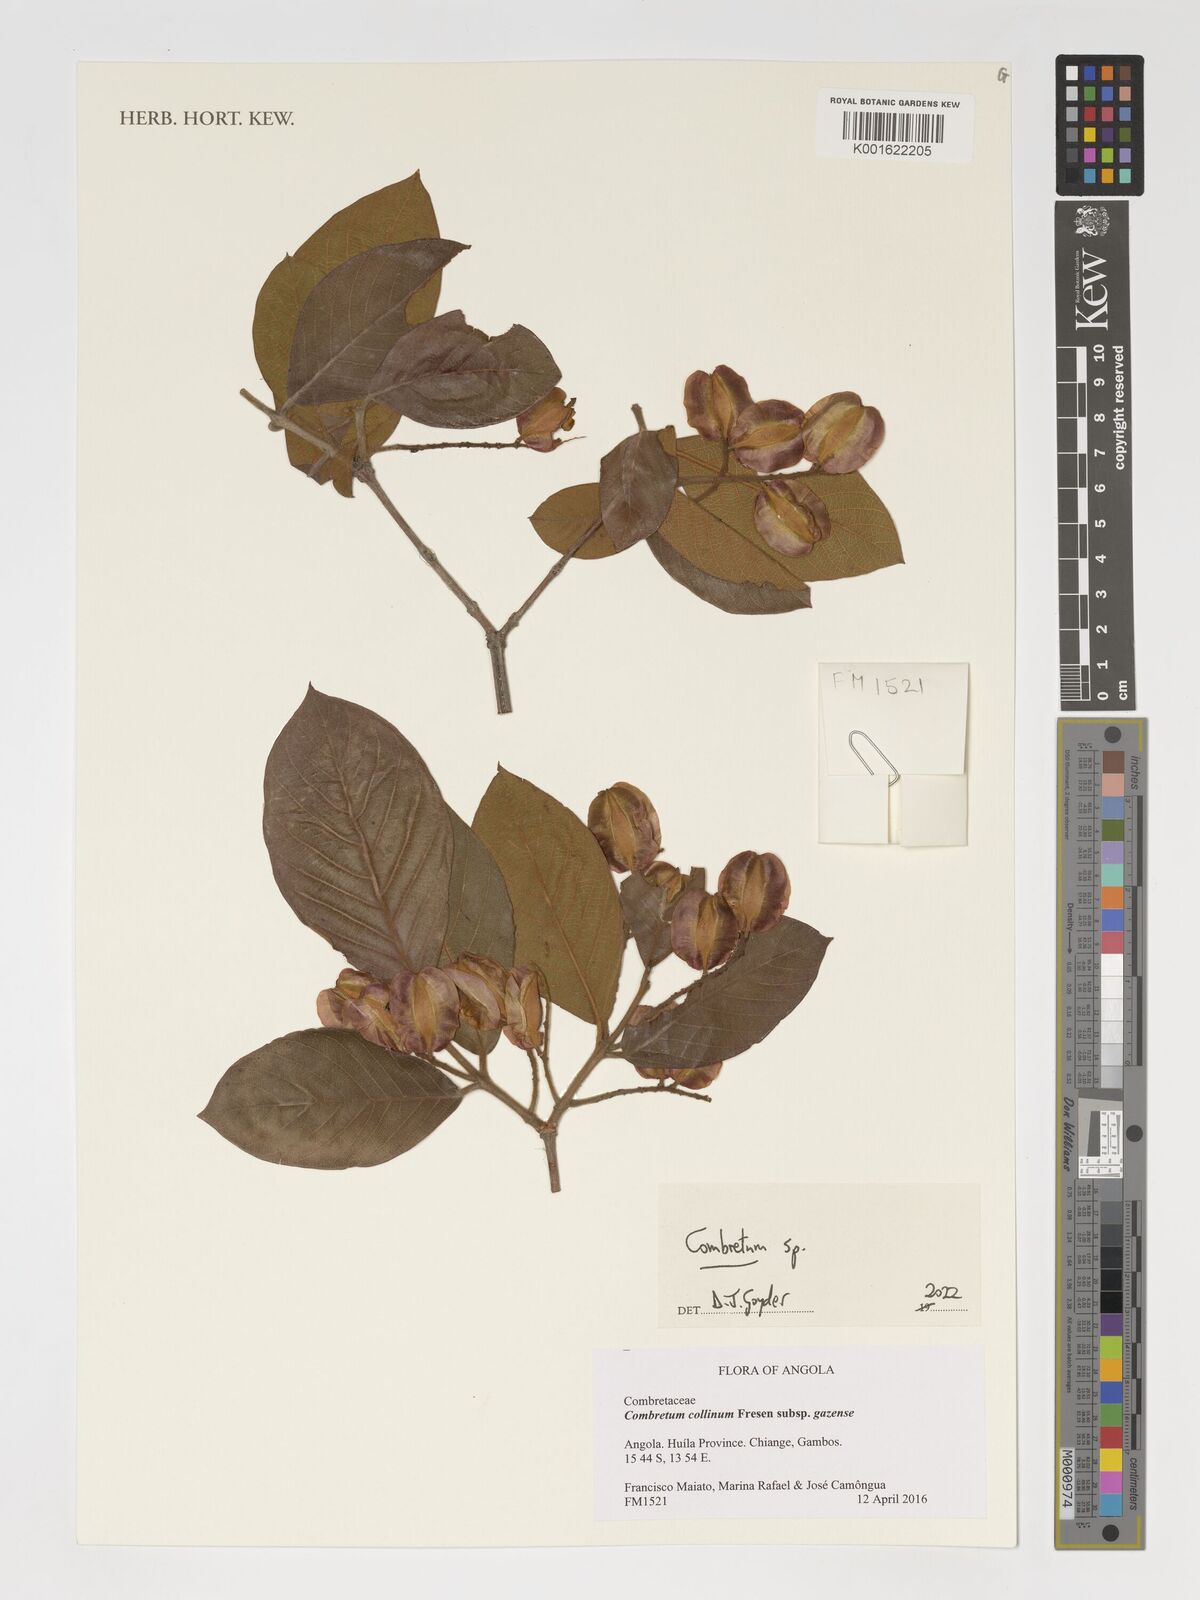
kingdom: Plantae
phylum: Tracheophyta
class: Magnoliopsida
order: Myrtales
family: Combretaceae
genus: Combretum
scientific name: Combretum
